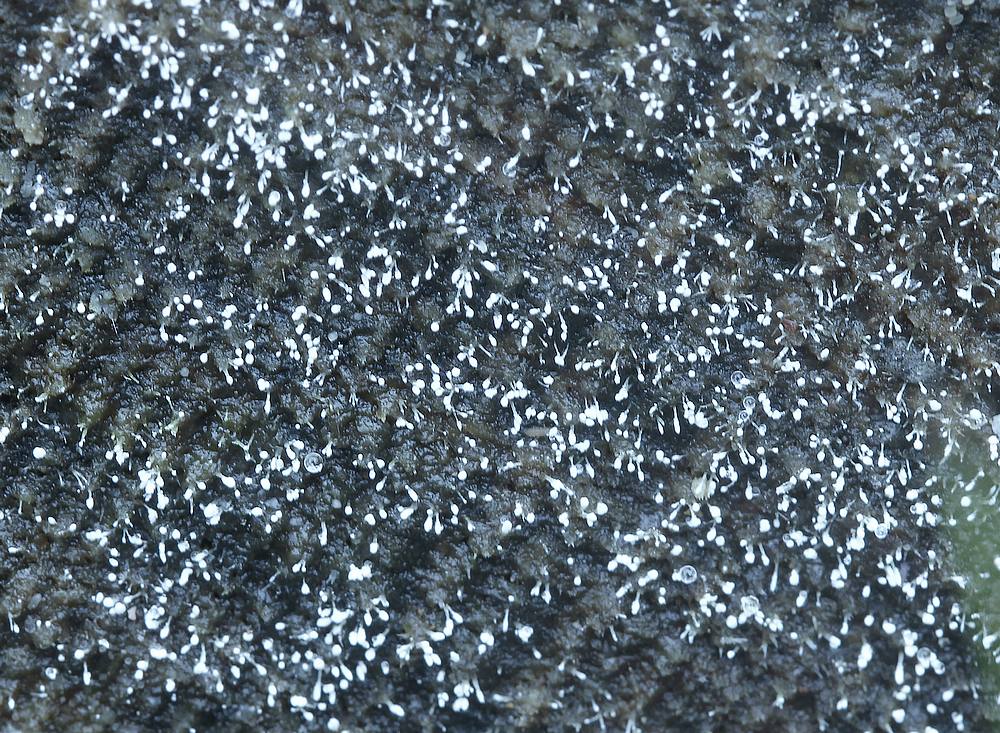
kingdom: Fungi
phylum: Ascomycota
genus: Sphaeridium
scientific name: Sphaeridium
